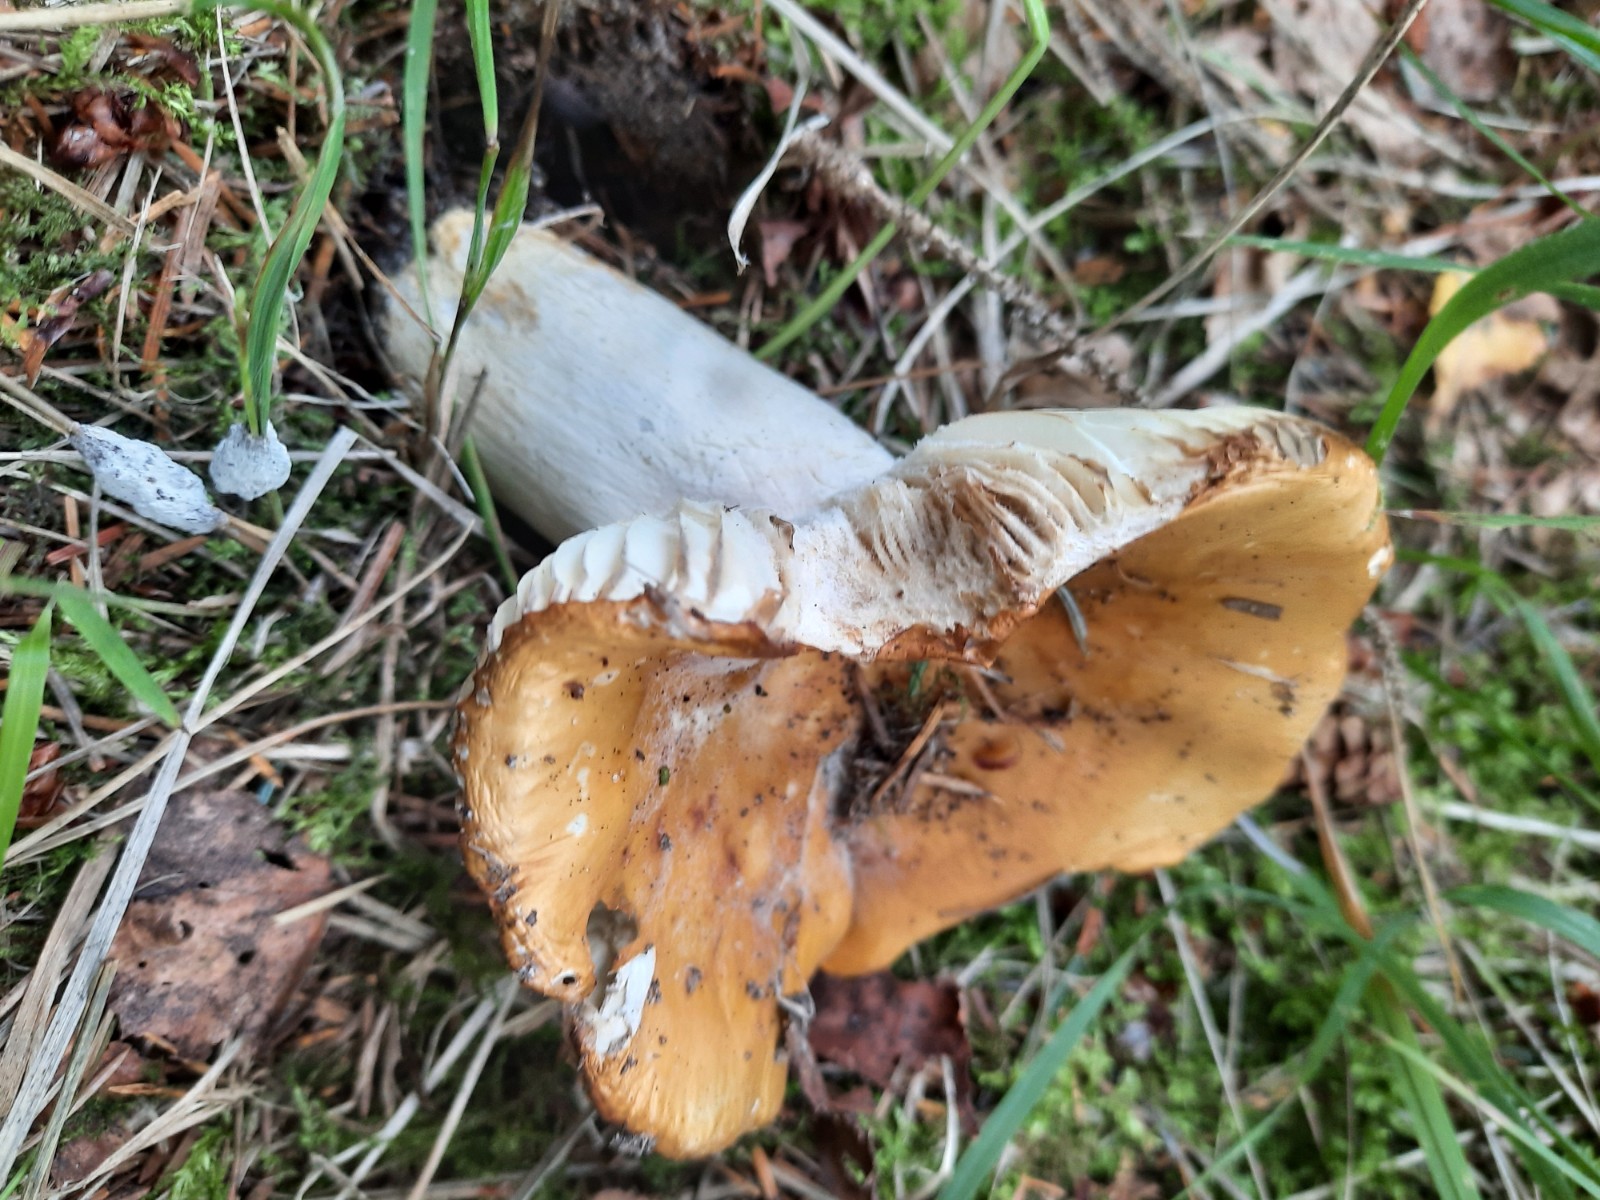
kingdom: Fungi
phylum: Basidiomycota
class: Agaricomycetes
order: Russulales
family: Russulaceae
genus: Russula
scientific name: Russula ochroleuca
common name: okkergul skørhat
